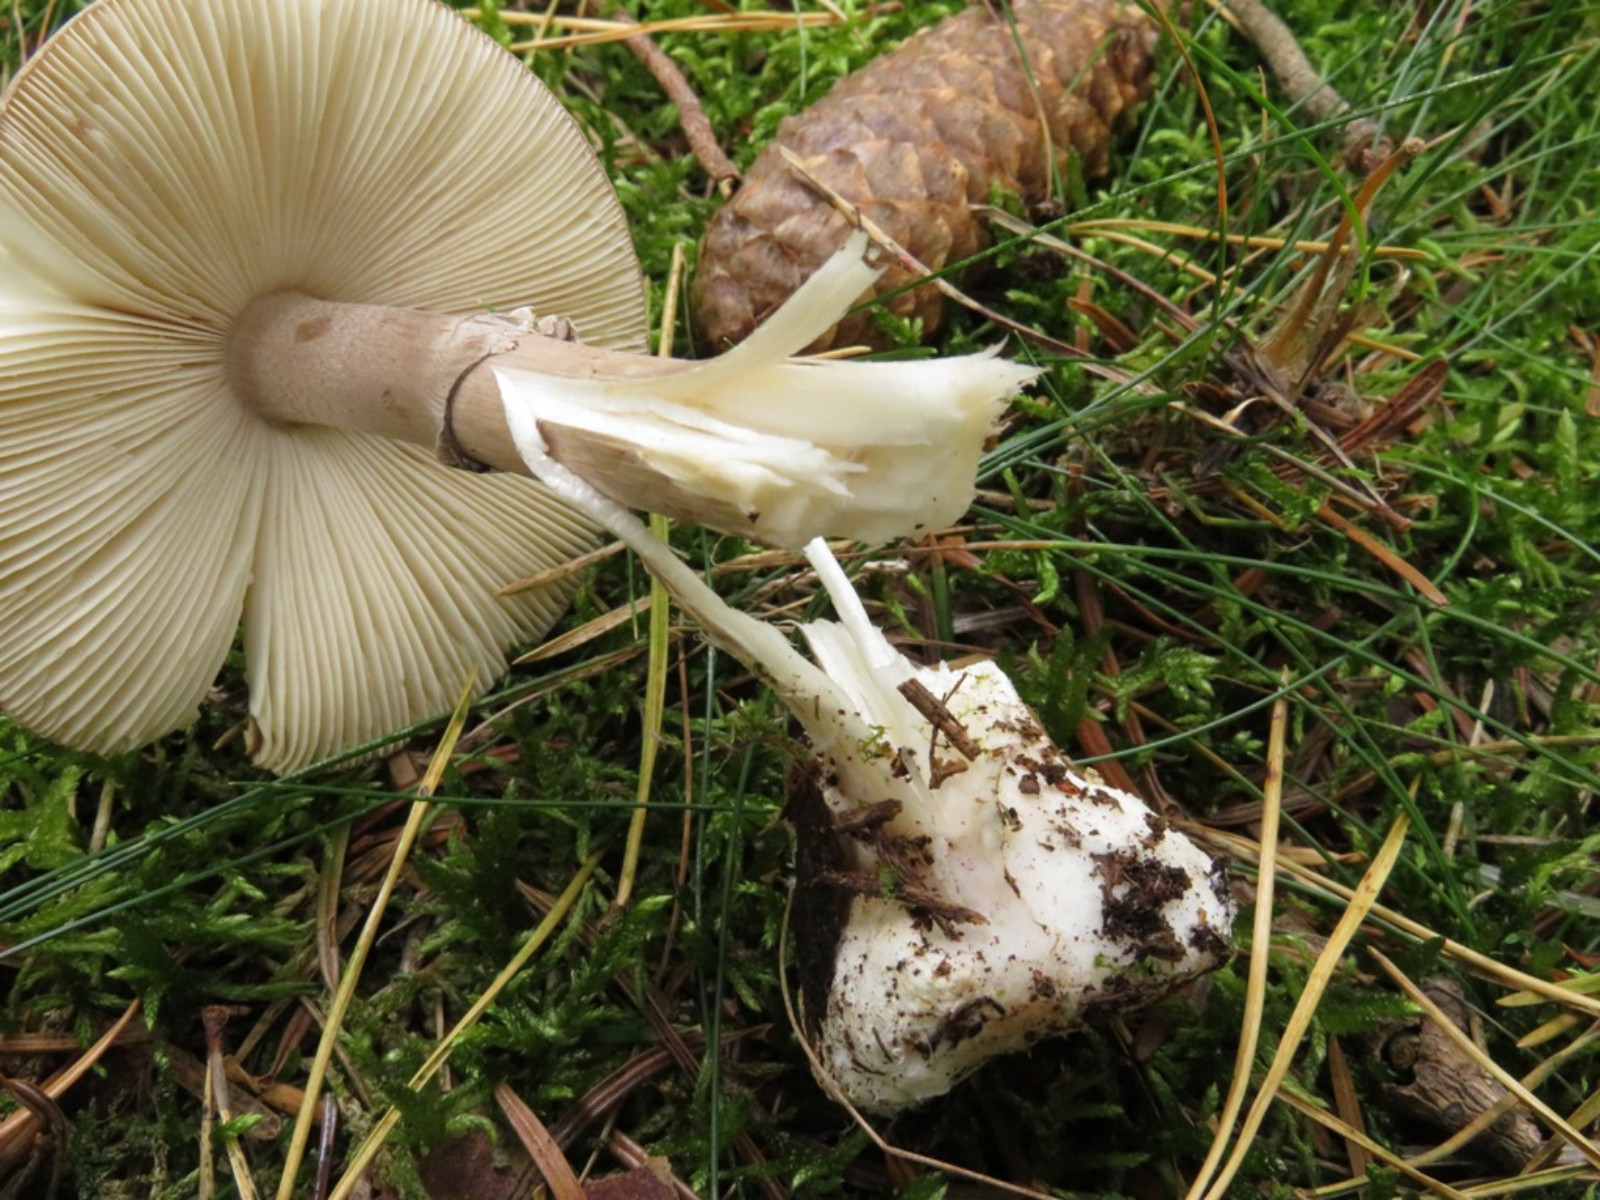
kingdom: Fungi
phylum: Basidiomycota
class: Agaricomycetes
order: Agaricales
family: Amanitaceae
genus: Amanita
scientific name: Amanita porphyria
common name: porfyr-fluesvamp
